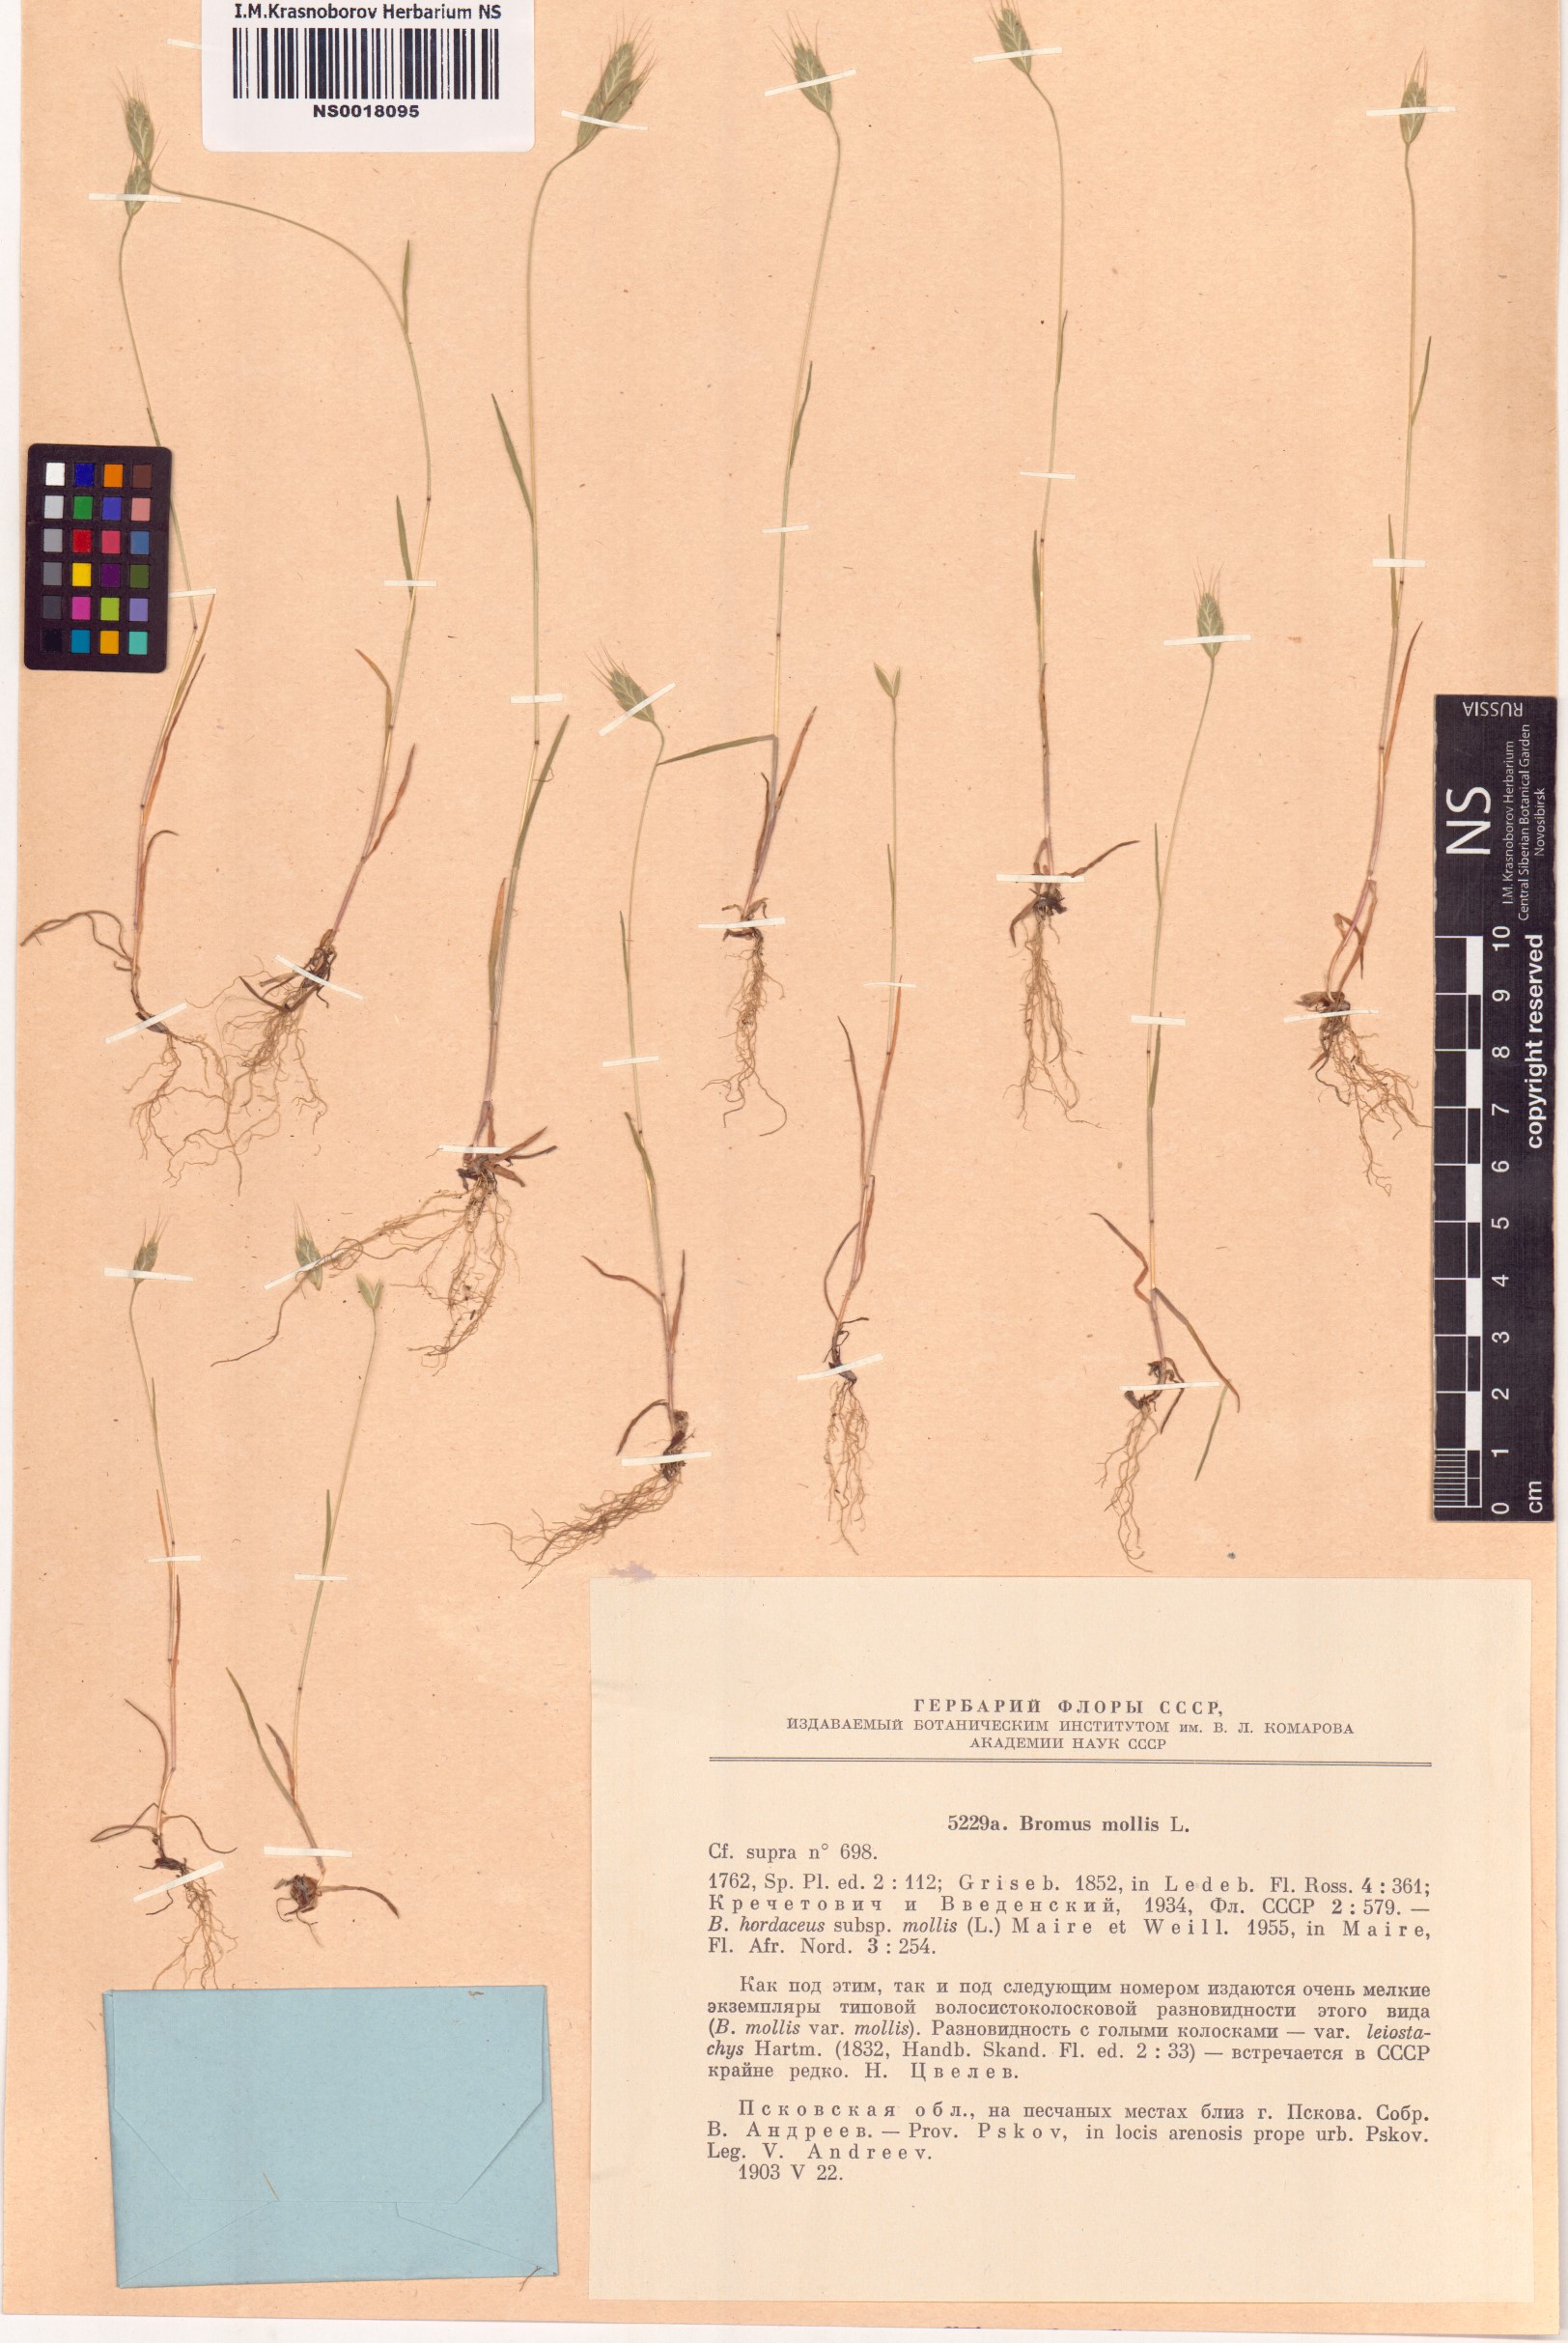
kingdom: Plantae
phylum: Tracheophyta
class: Liliopsida
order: Poales
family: Poaceae
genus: Bromus
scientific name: Bromus hordeaceus
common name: Soft brome
